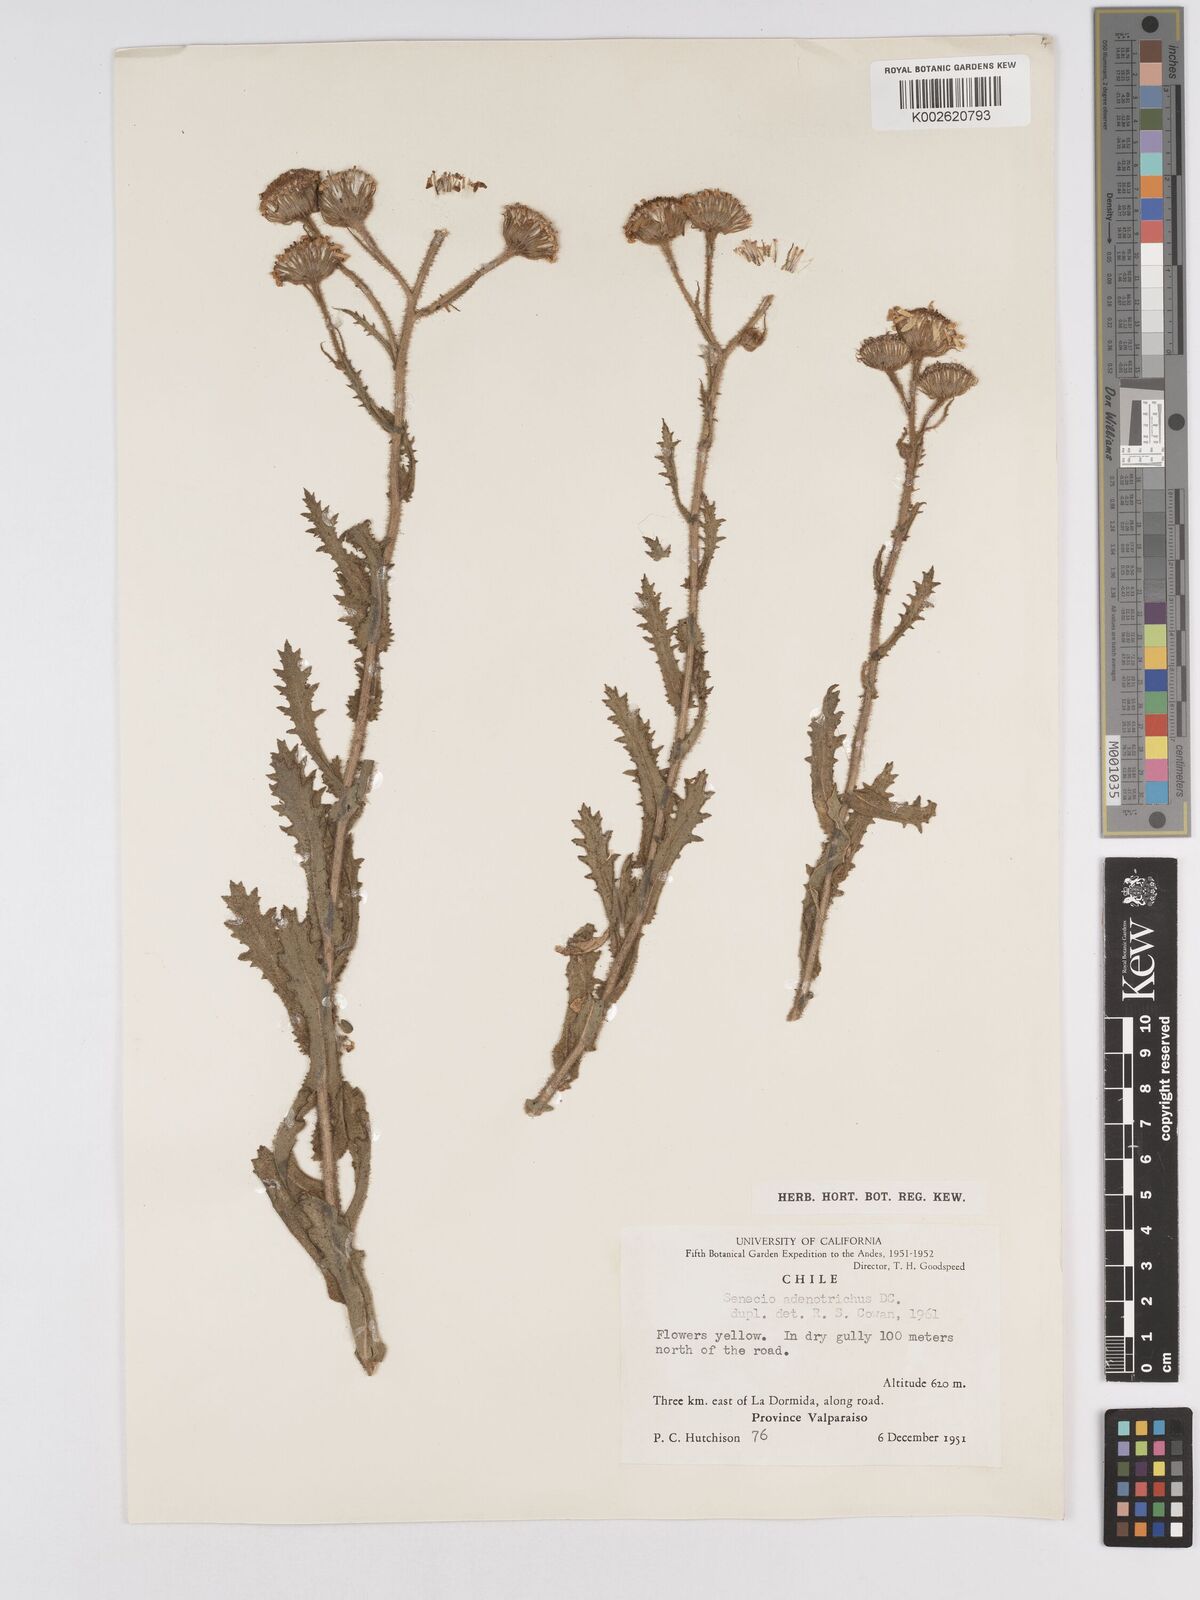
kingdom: Plantae
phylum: Tracheophyta
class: Magnoliopsida
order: Asterales
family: Asteraceae
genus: Senecio
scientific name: Senecio adenotrichius
